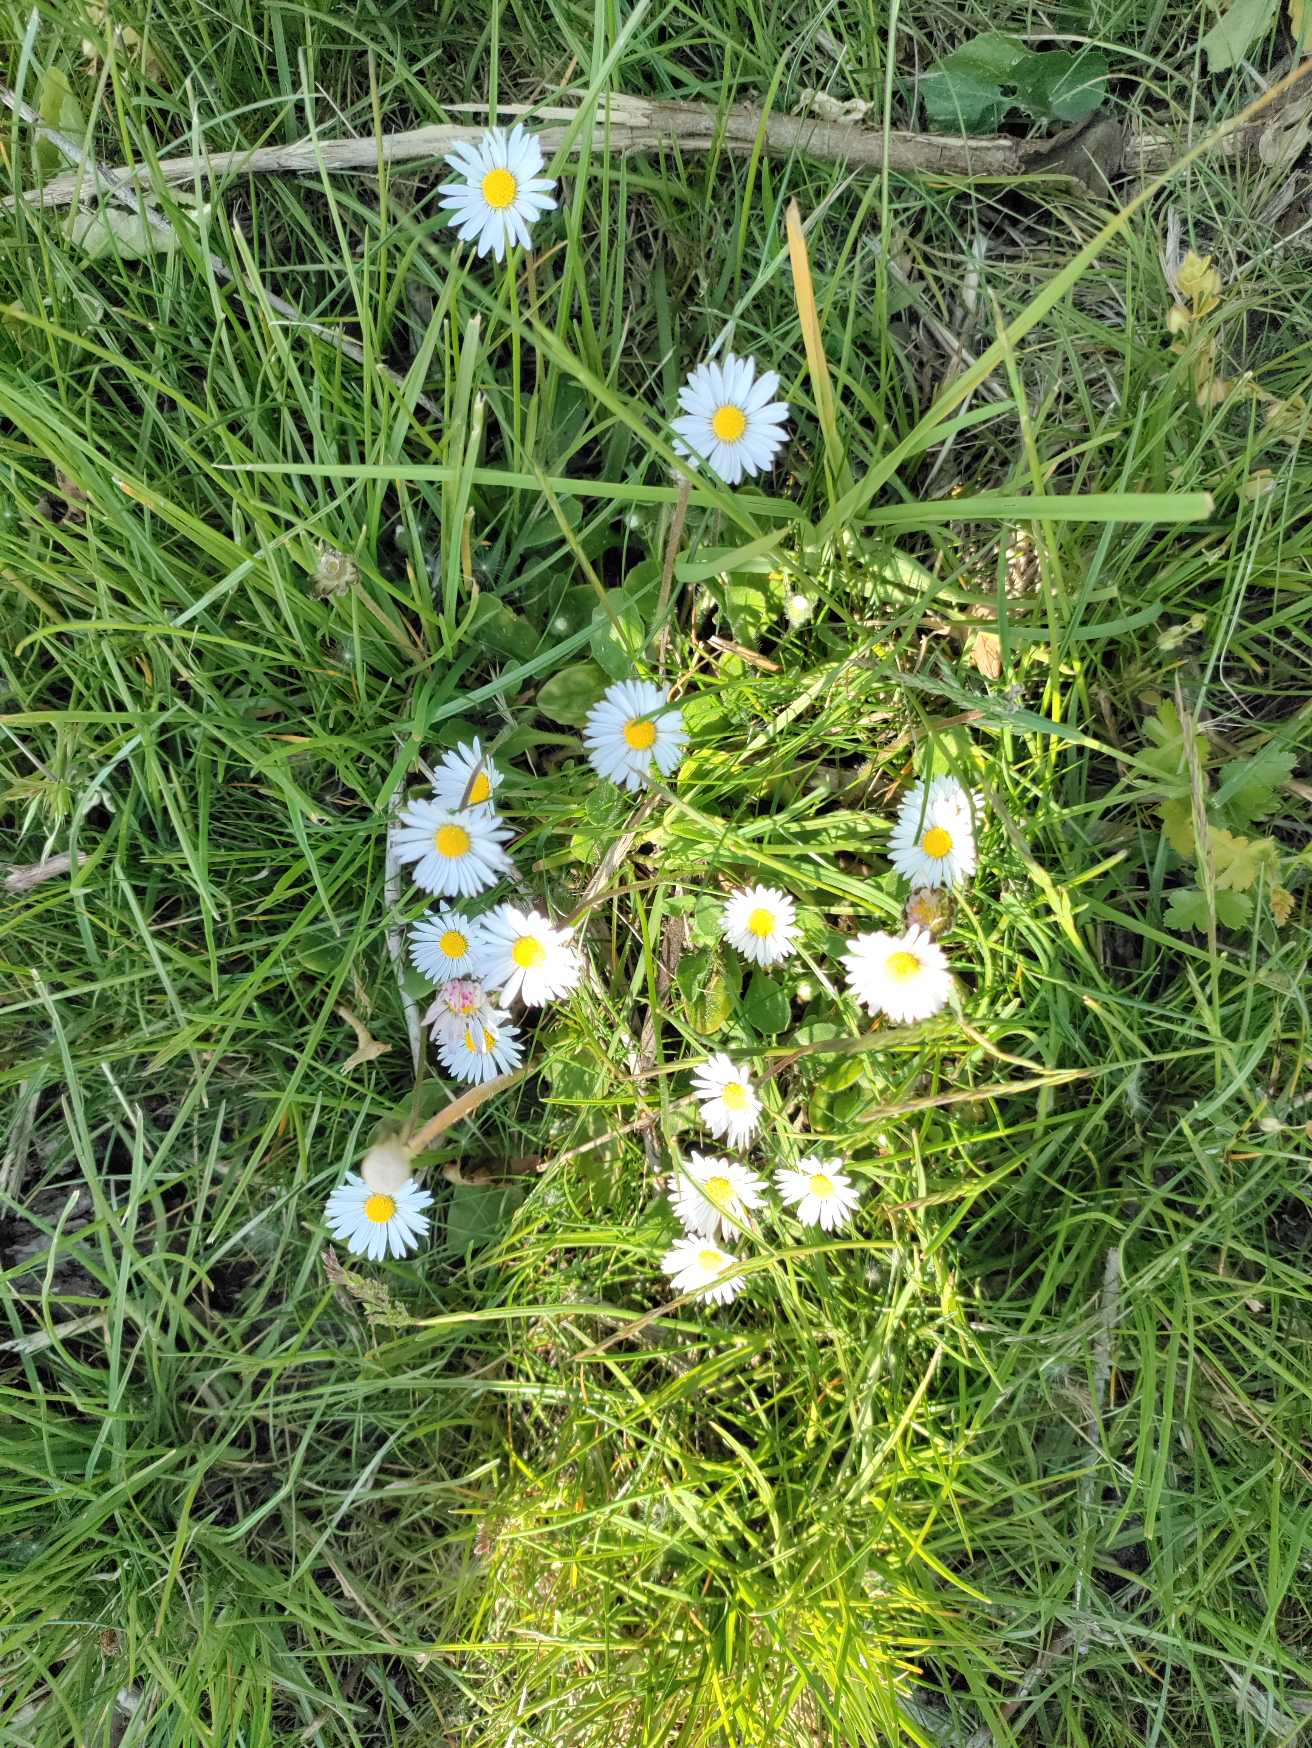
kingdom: Plantae
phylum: Tracheophyta
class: Magnoliopsida
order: Asterales
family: Asteraceae
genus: Bellis
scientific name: Bellis perennis
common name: Tusindfryd
